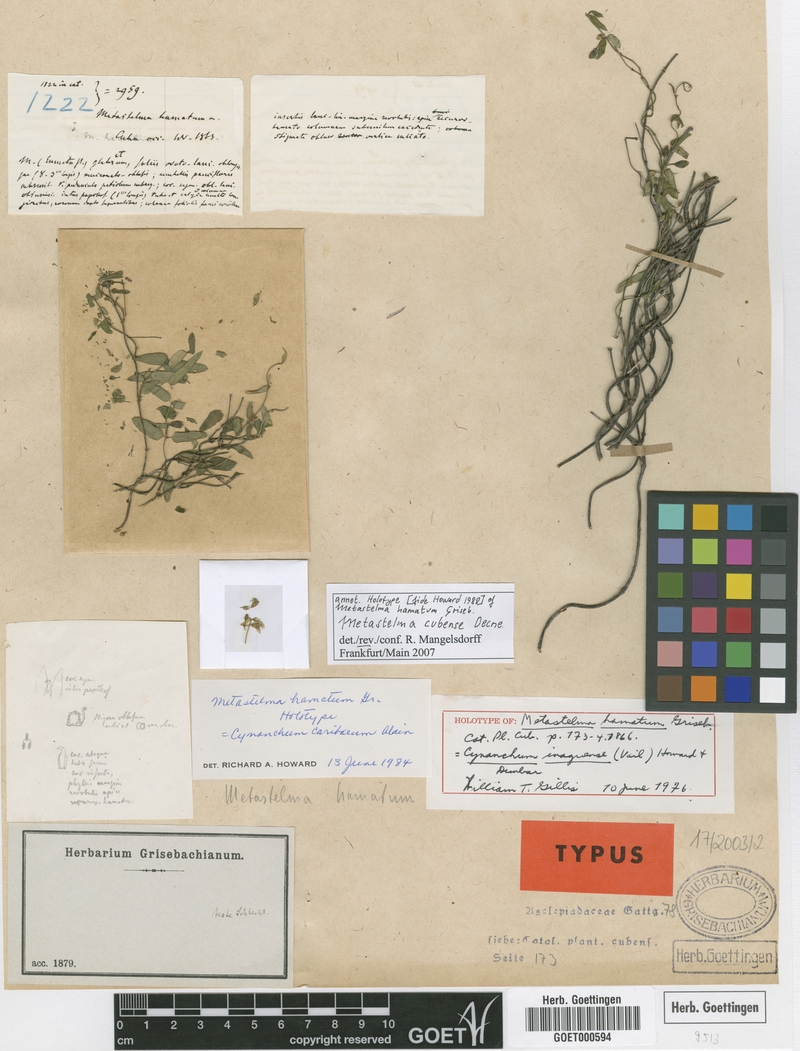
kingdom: Plantae
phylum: Tracheophyta
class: Magnoliopsida
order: Gentianales
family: Apocynaceae
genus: Metastelma
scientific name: Metastelma cubense
